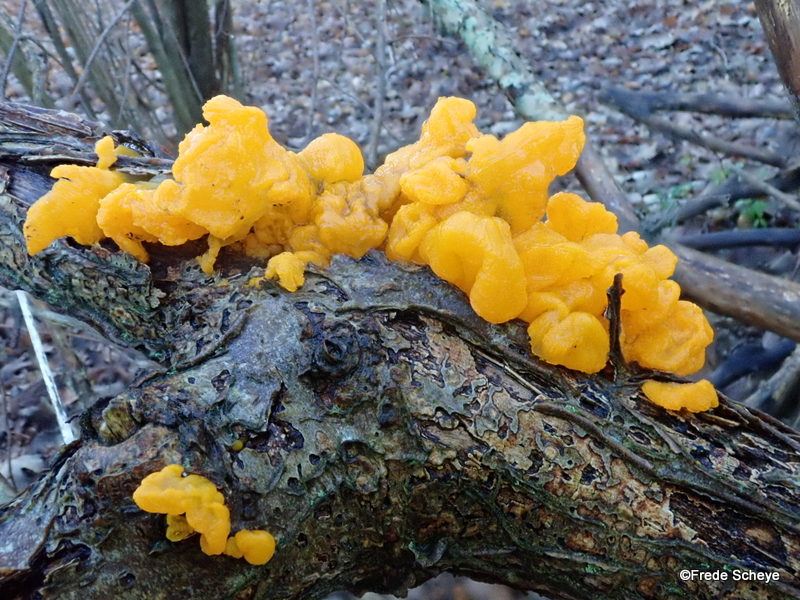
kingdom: Fungi
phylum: Basidiomycota
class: Tremellomycetes
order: Tremellales
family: Tremellaceae
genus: Tremella
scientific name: Tremella mesenterica
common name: gul bævresvamp
